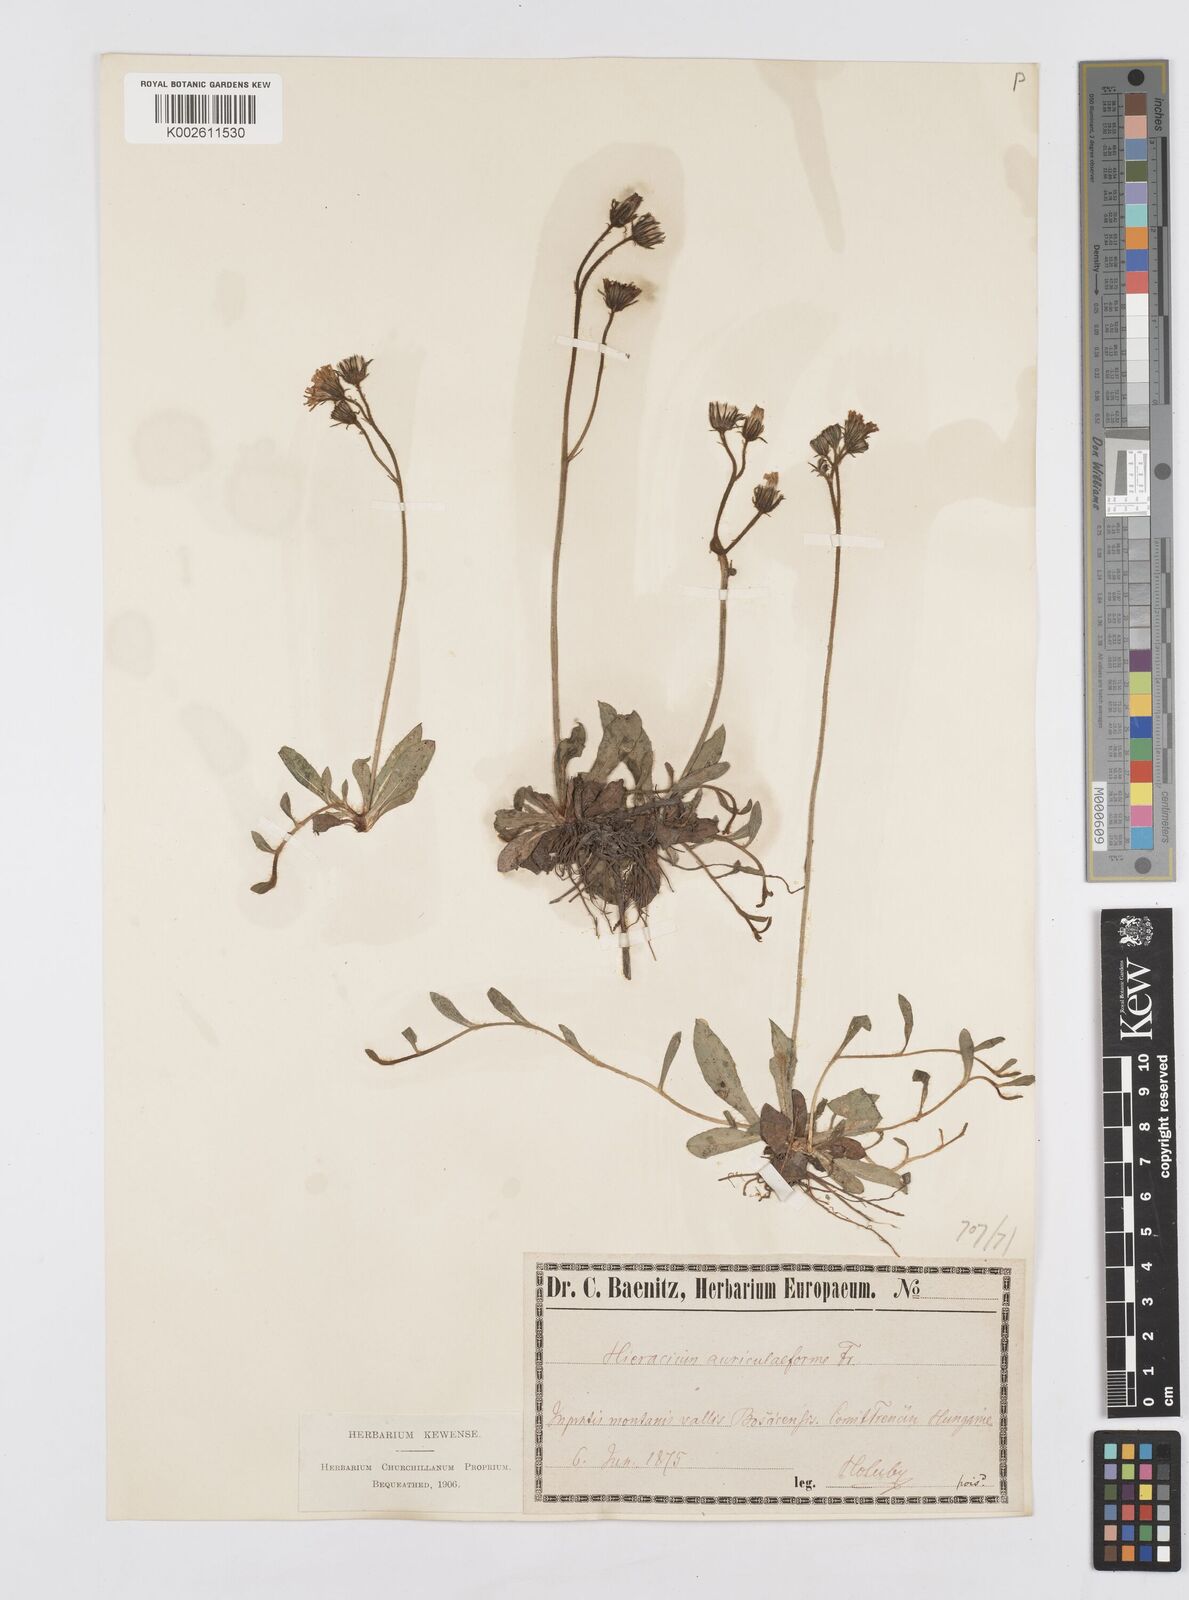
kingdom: Plantae
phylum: Tracheophyta
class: Magnoliopsida
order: Asterales
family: Asteraceae
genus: Pilosella
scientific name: Pilosella leptophyton
